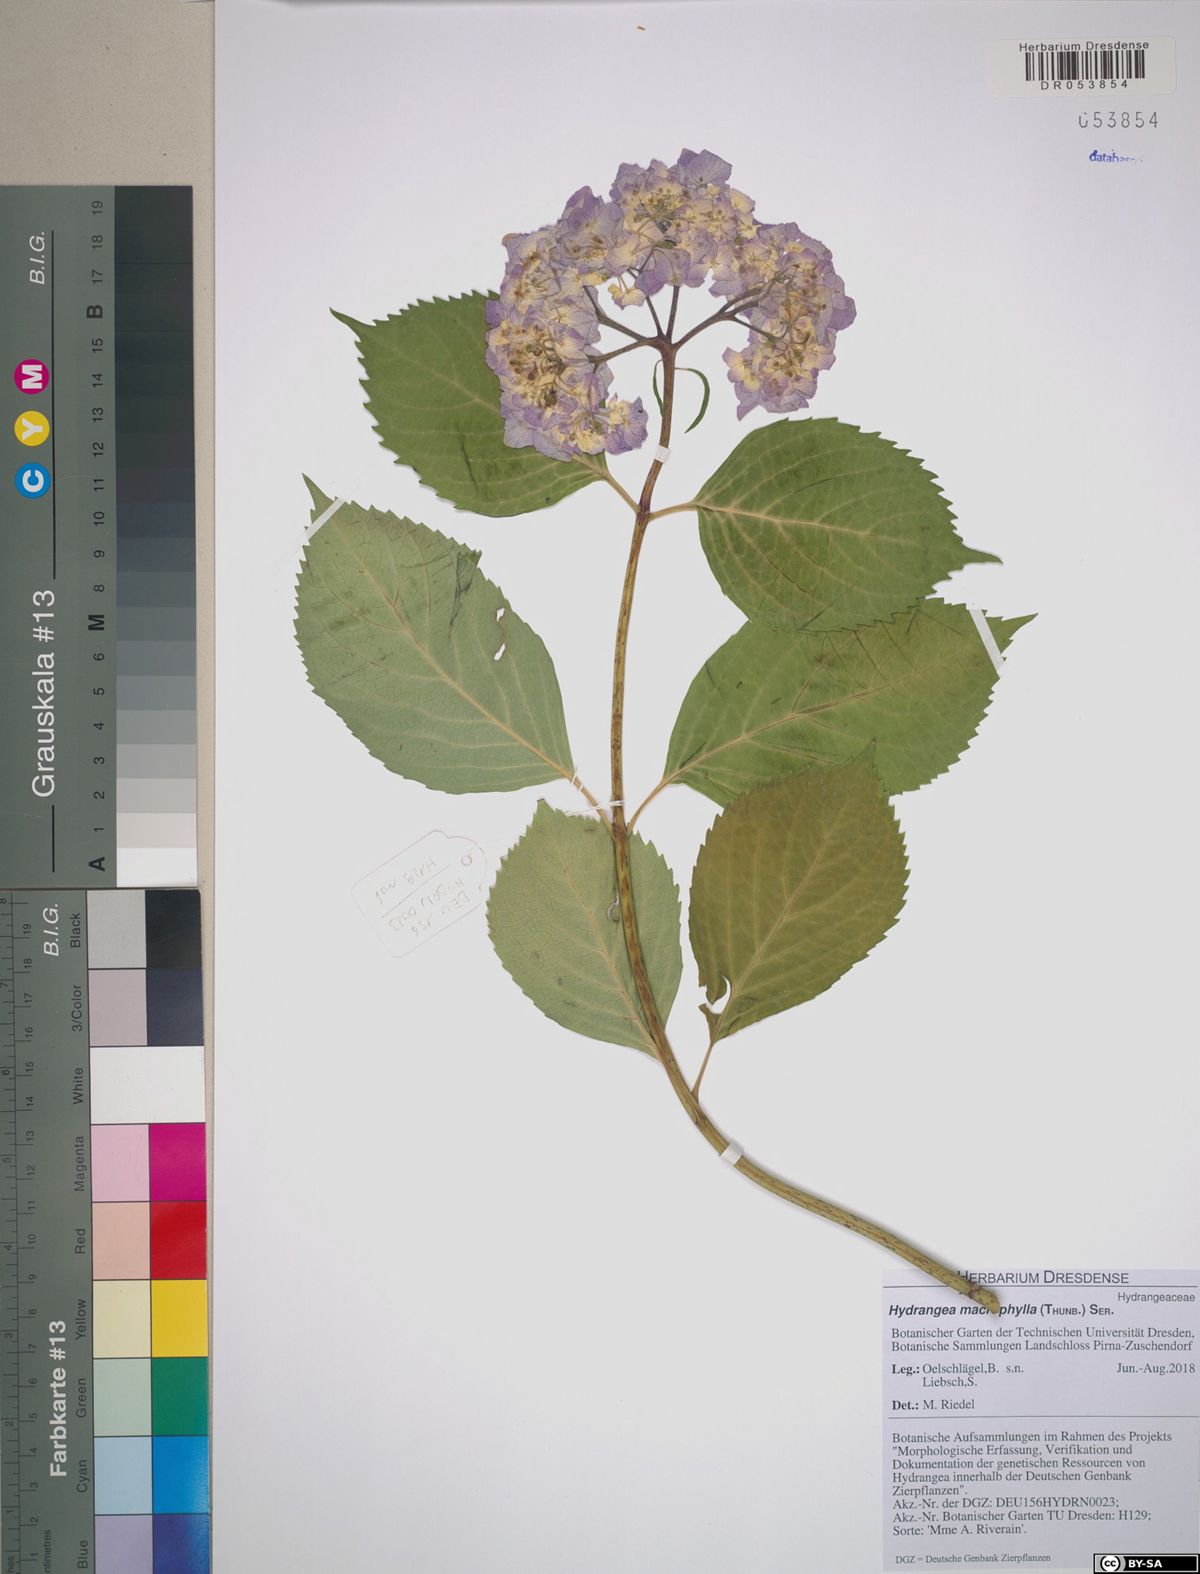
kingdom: Plantae
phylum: Tracheophyta
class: Magnoliopsida
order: Cornales
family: Hydrangeaceae
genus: Hydrangea
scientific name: Hydrangea macrophylla
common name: Hydrangea
